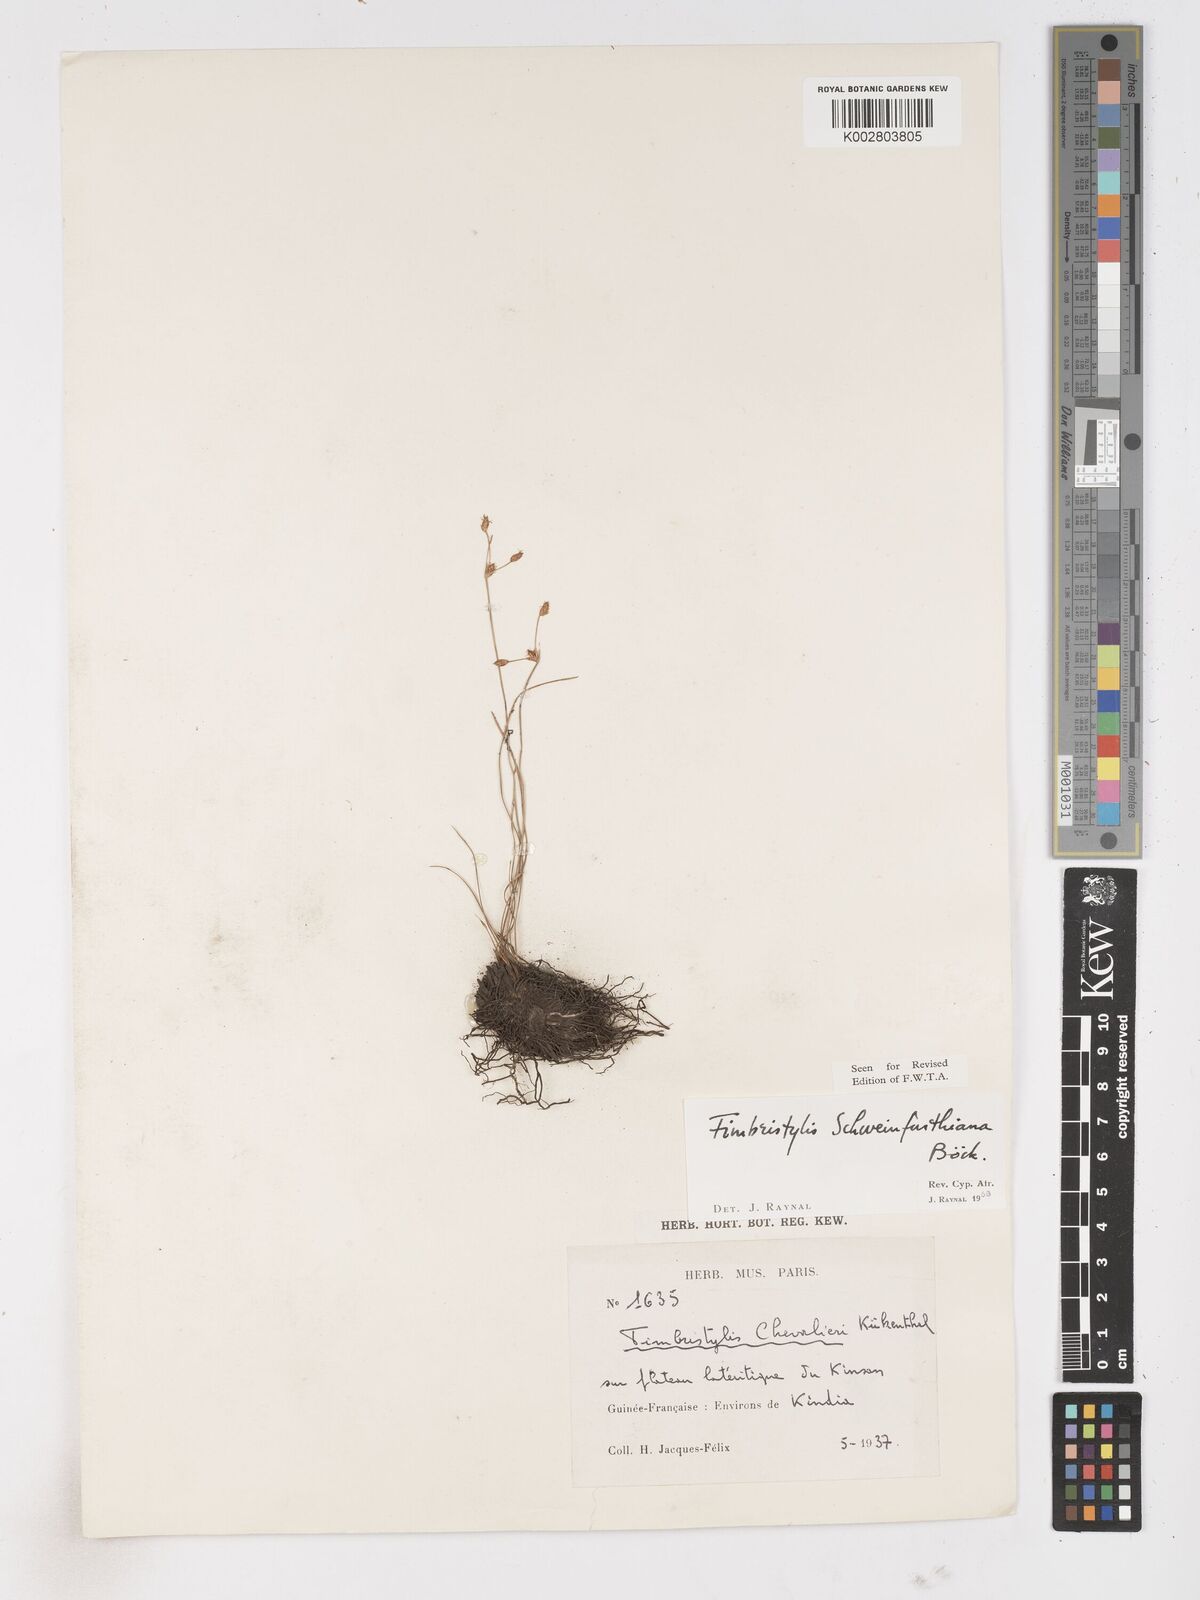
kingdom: Plantae
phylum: Tracheophyta
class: Liliopsida
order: Poales
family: Cyperaceae
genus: Fimbristylis
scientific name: Fimbristylis schweinfurthiana
